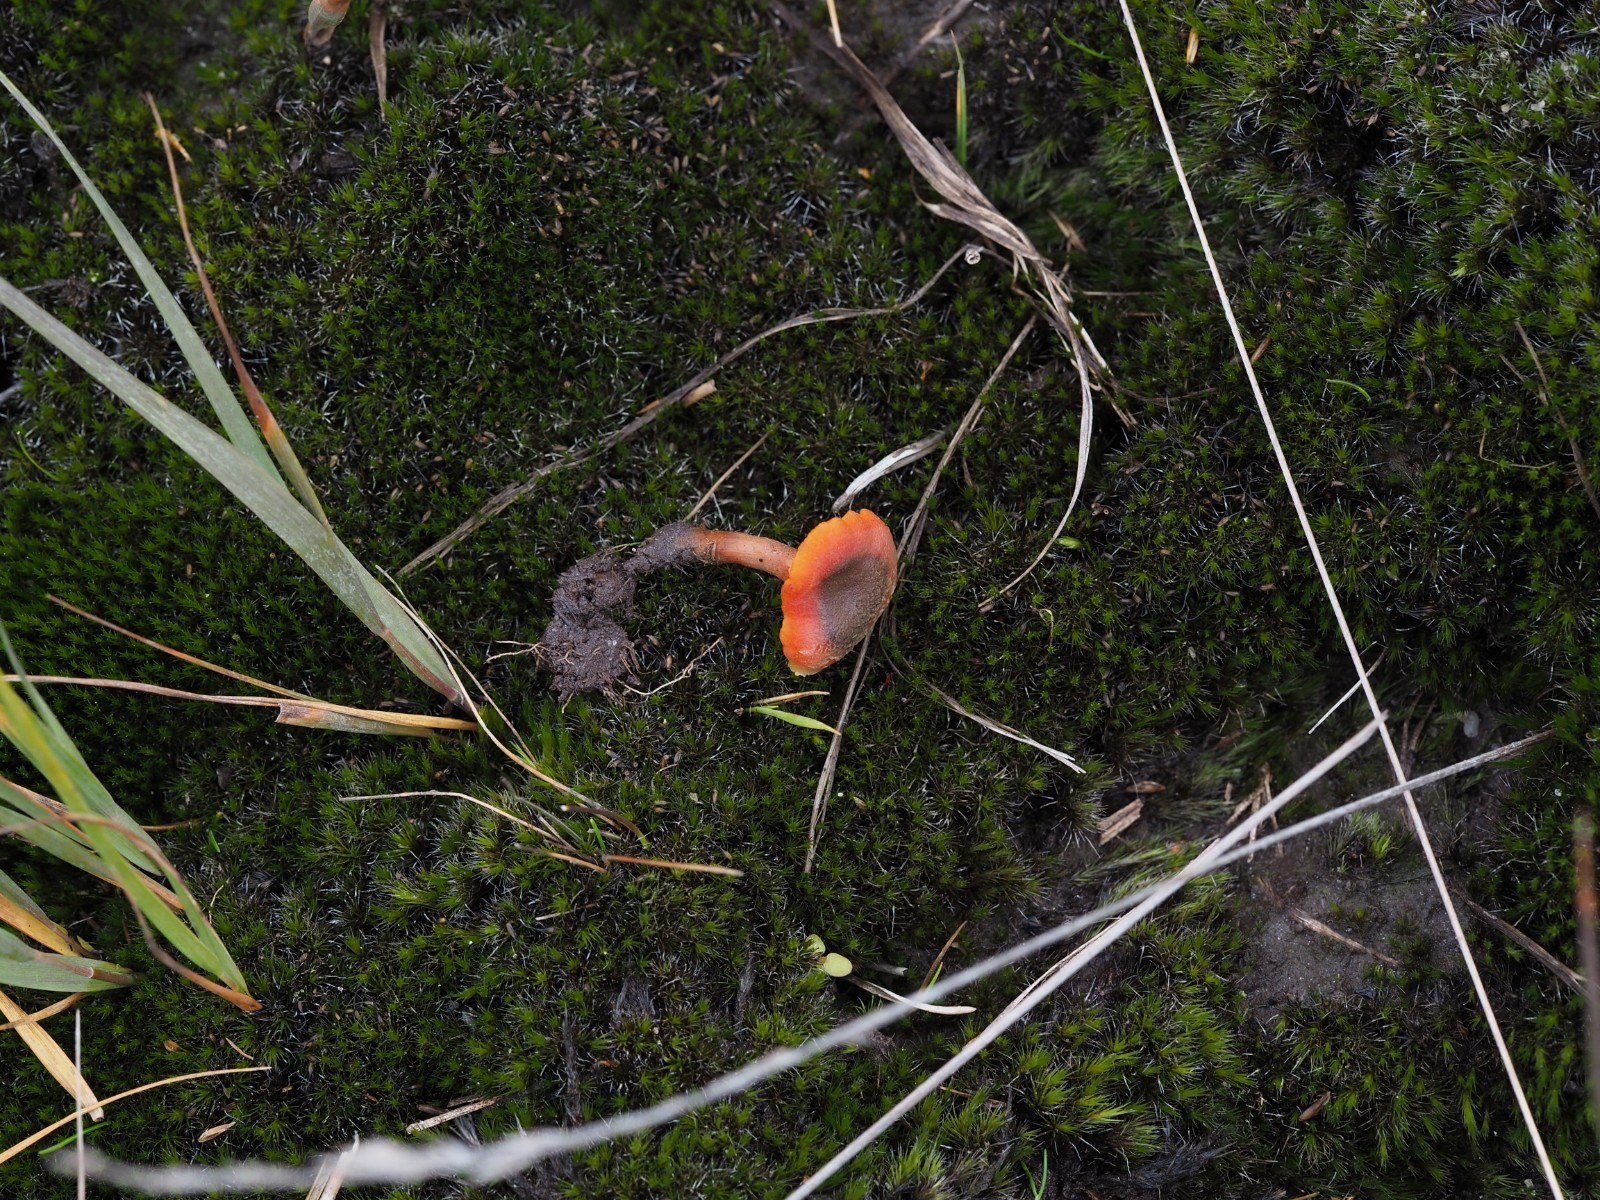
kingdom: Fungi
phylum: Basidiomycota
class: Agaricomycetes
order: Agaricales
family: Hygrophoraceae
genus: Hygrocybe
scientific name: Hygrocybe
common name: vokshat
